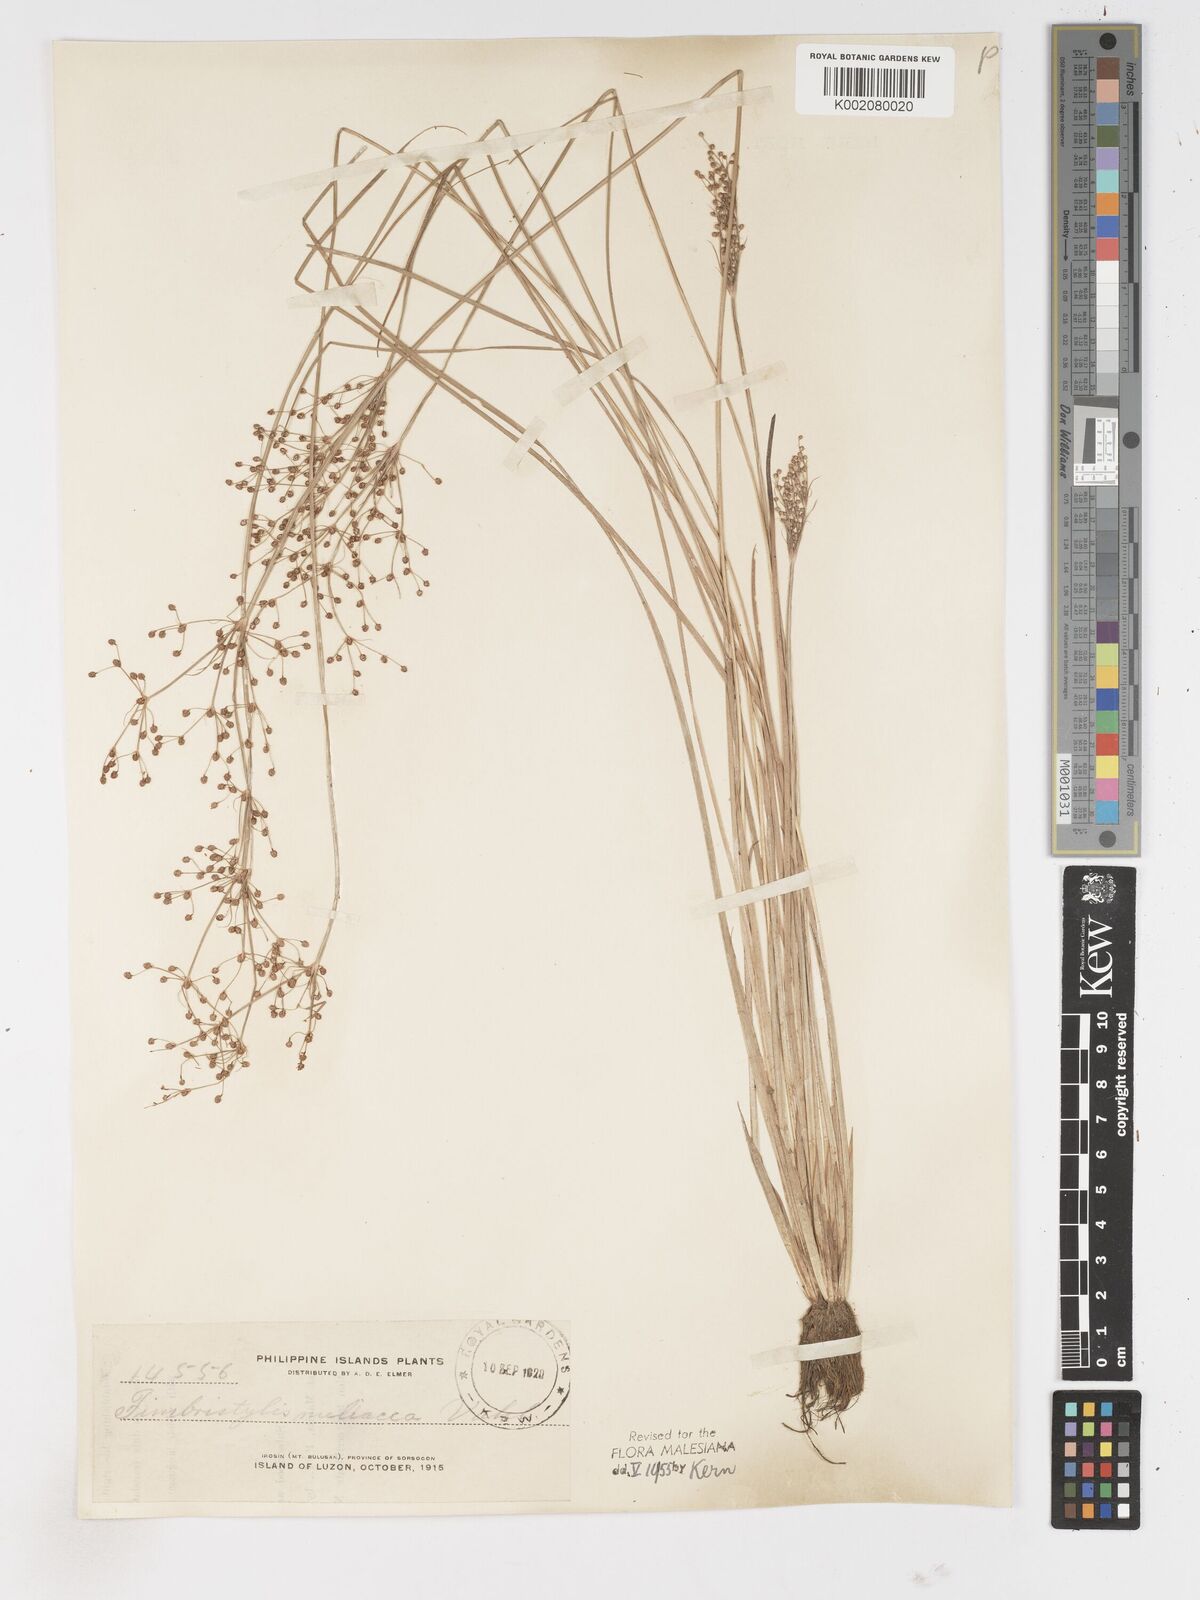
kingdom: Plantae
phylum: Tracheophyta
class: Liliopsida
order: Poales
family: Cyperaceae
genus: Fimbristylis
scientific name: Fimbristylis littoralis
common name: Fimbry
